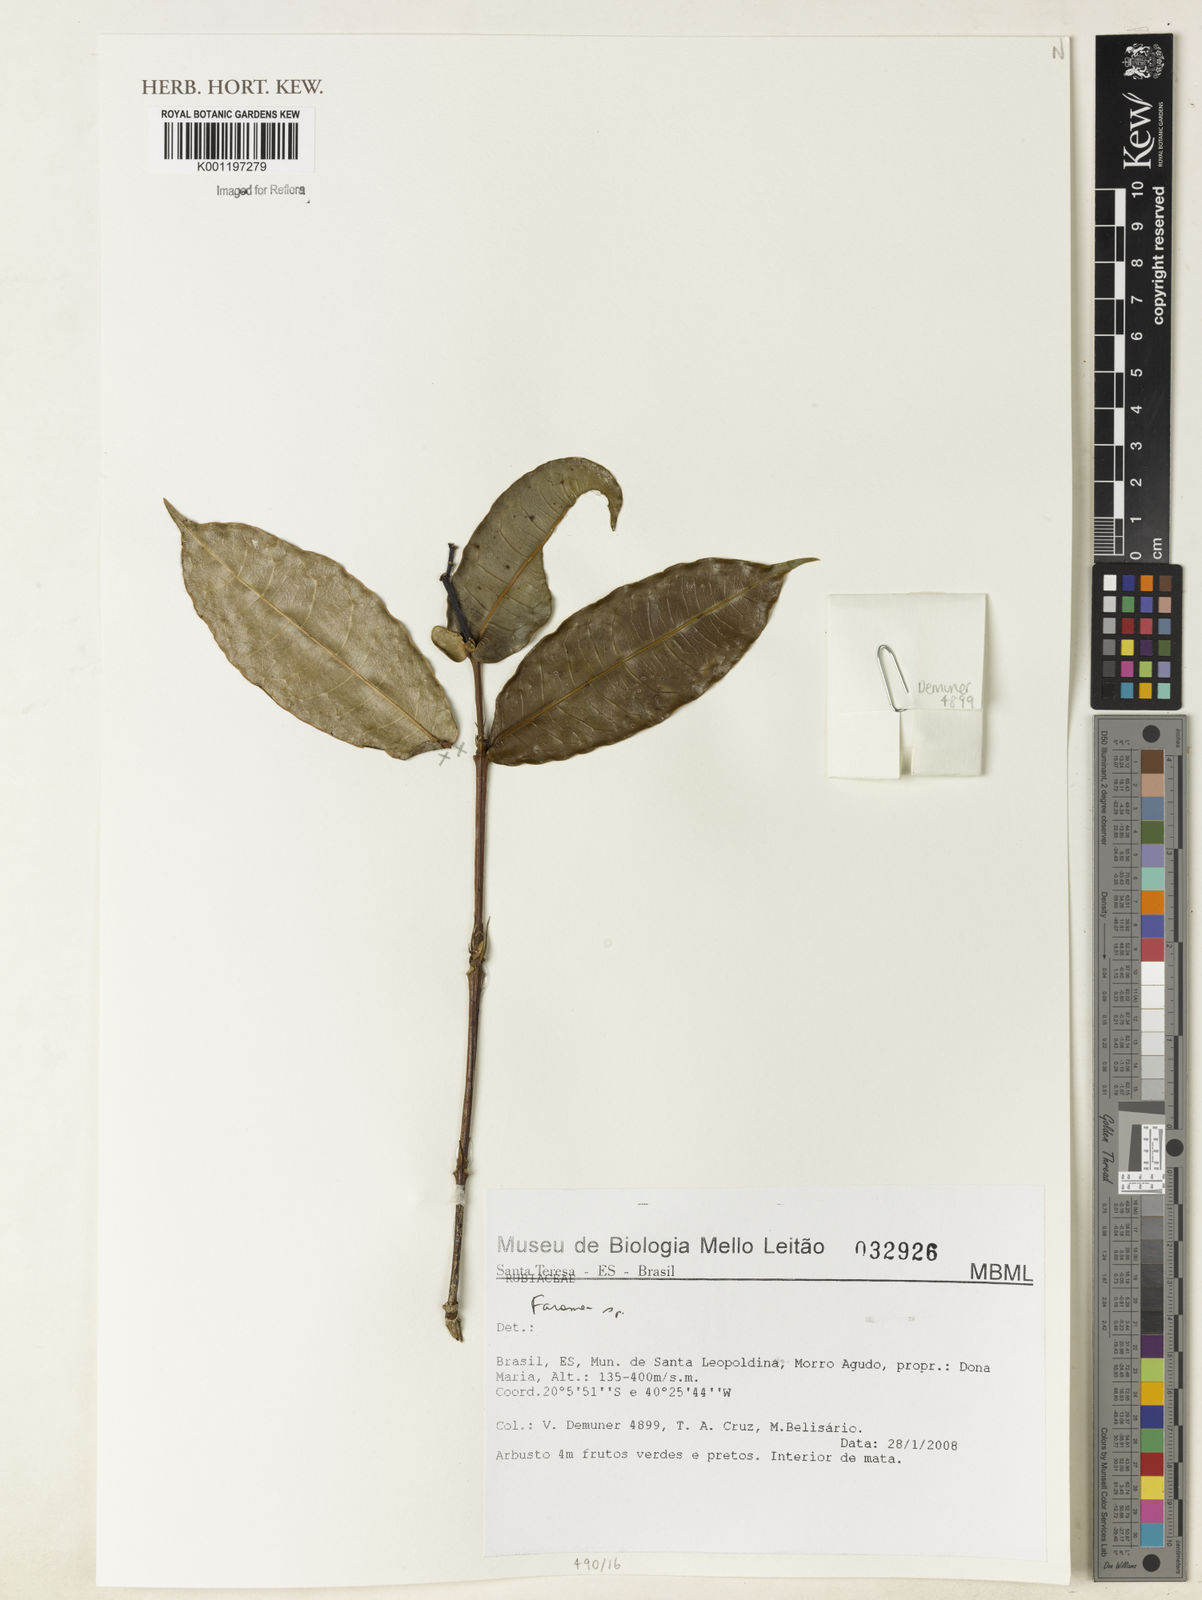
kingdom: Plantae
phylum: Tracheophyta
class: Magnoliopsida
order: Gentianales
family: Rubiaceae
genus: Faramea
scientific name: Faramea
